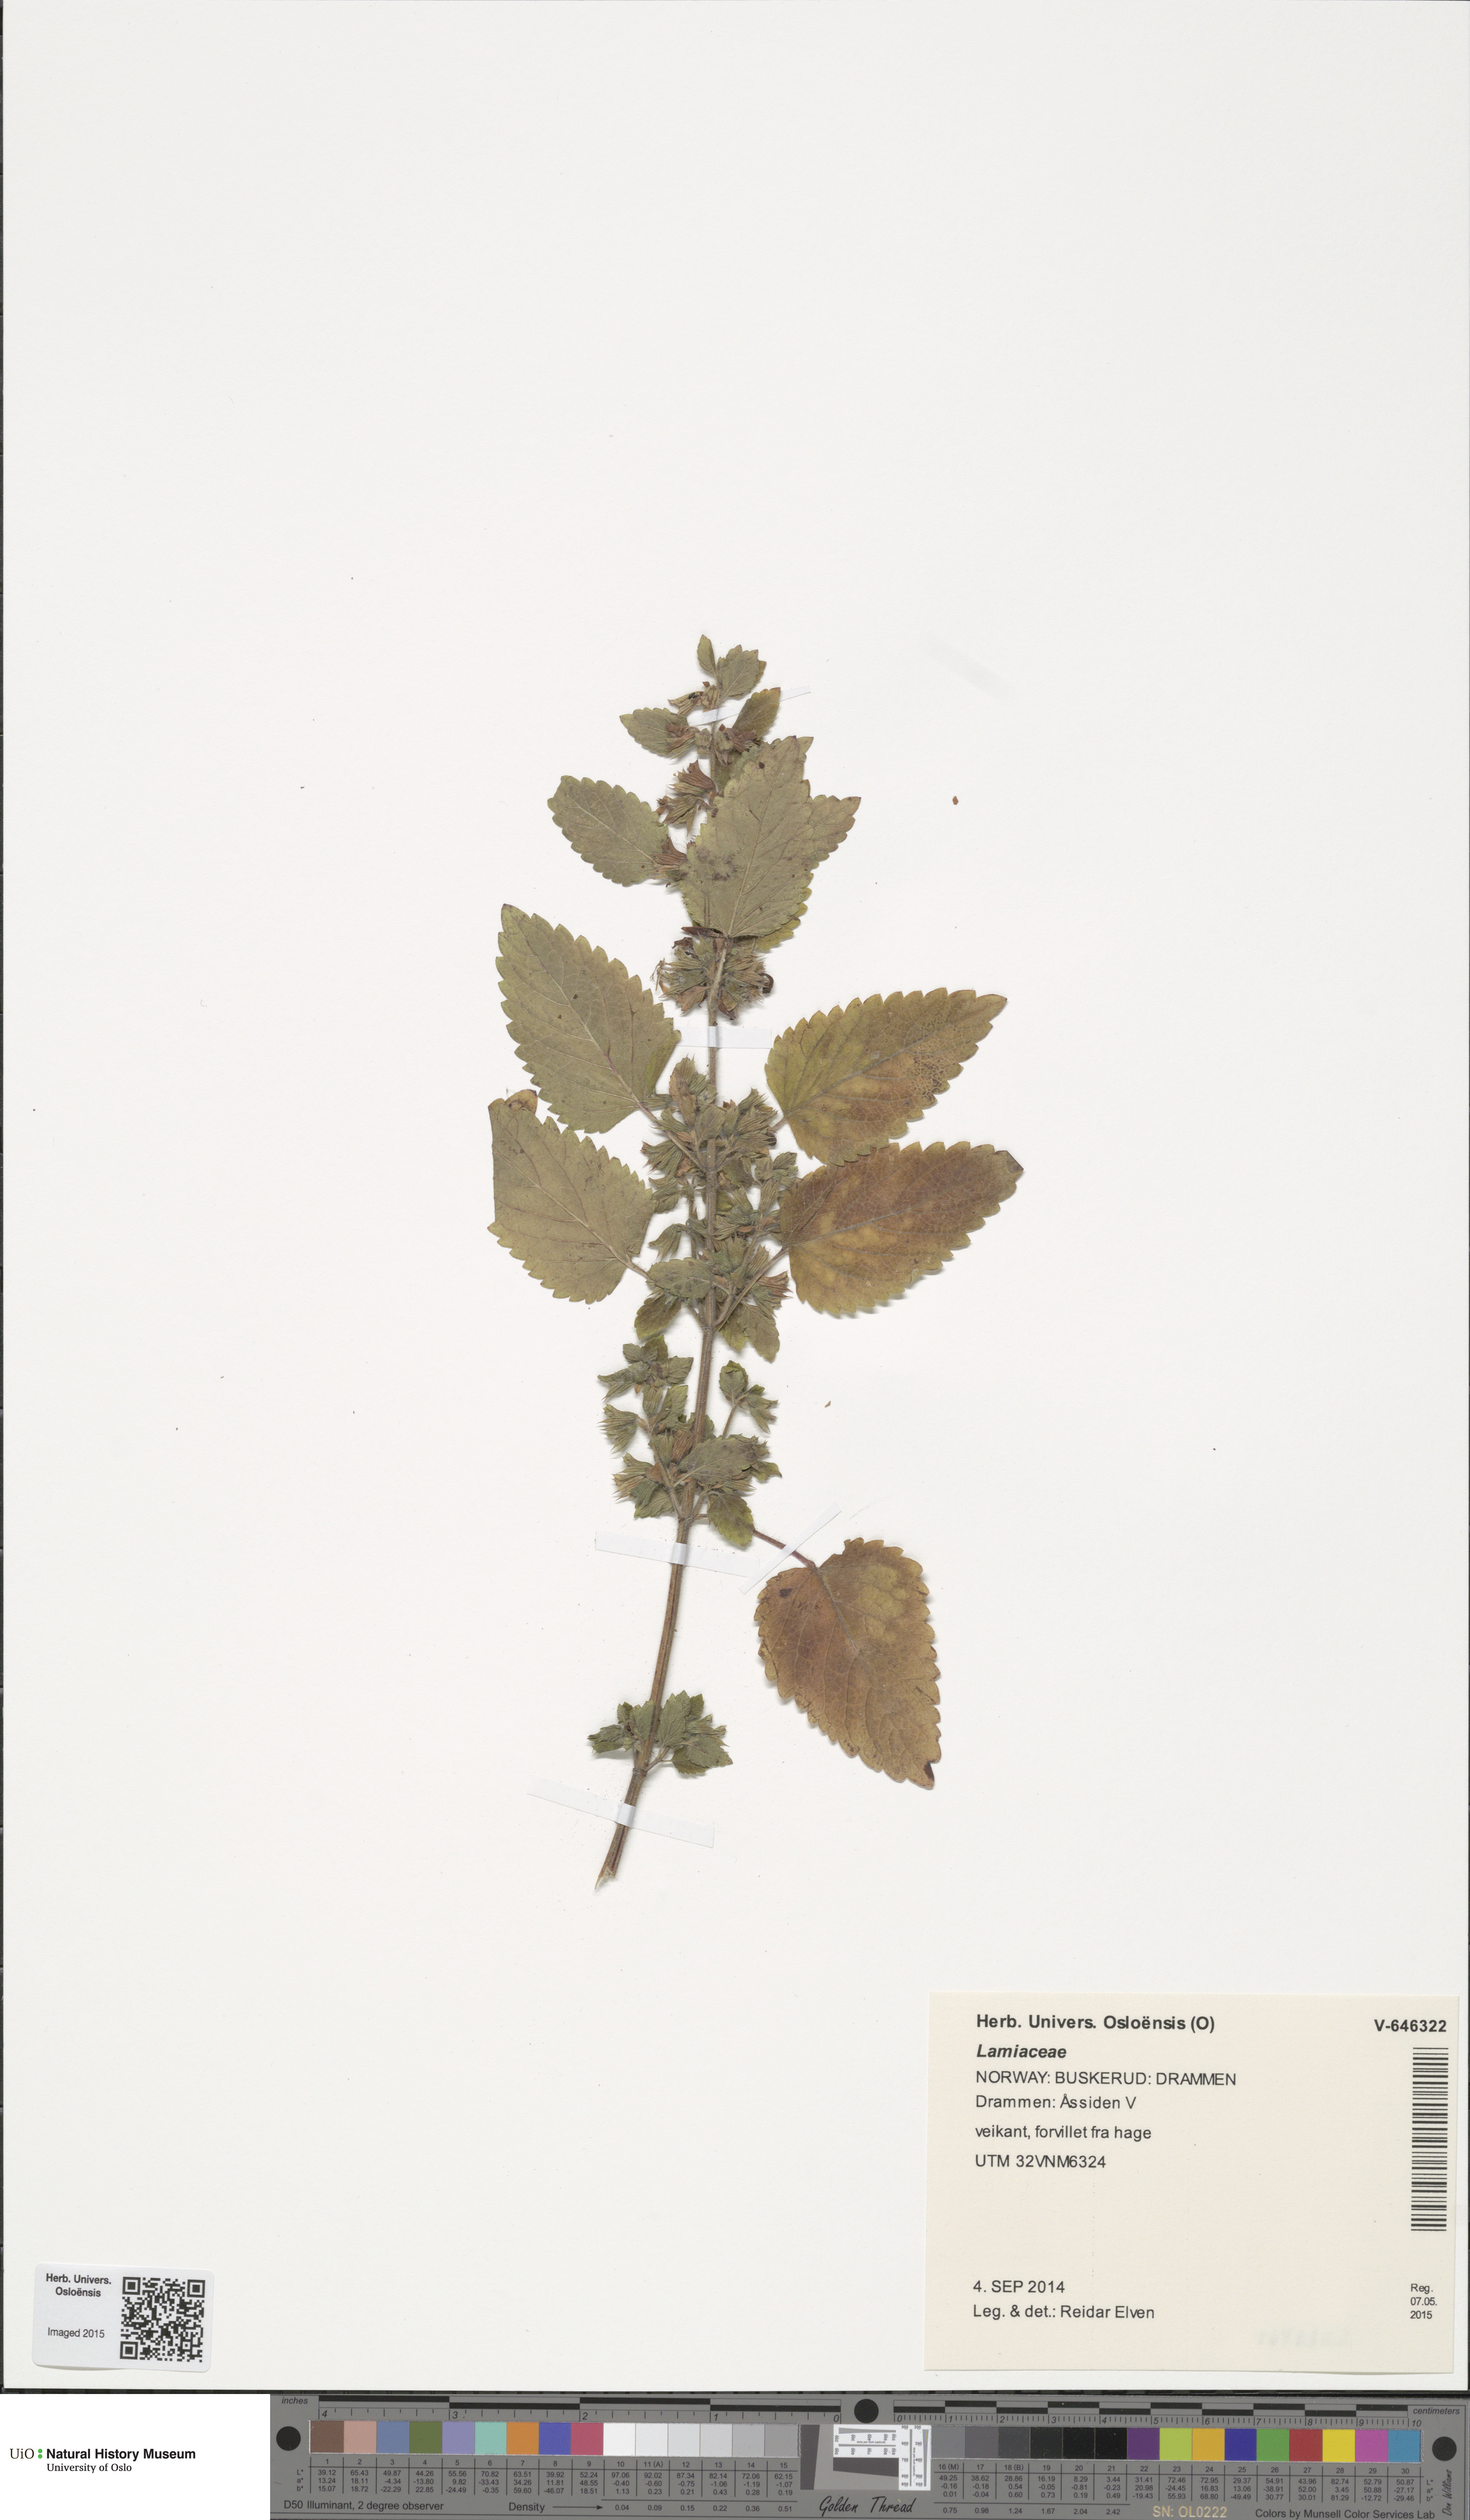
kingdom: Plantae
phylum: Tracheophyta
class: Magnoliopsida
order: Lamiales
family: Lamiaceae
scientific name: Lamiaceae
